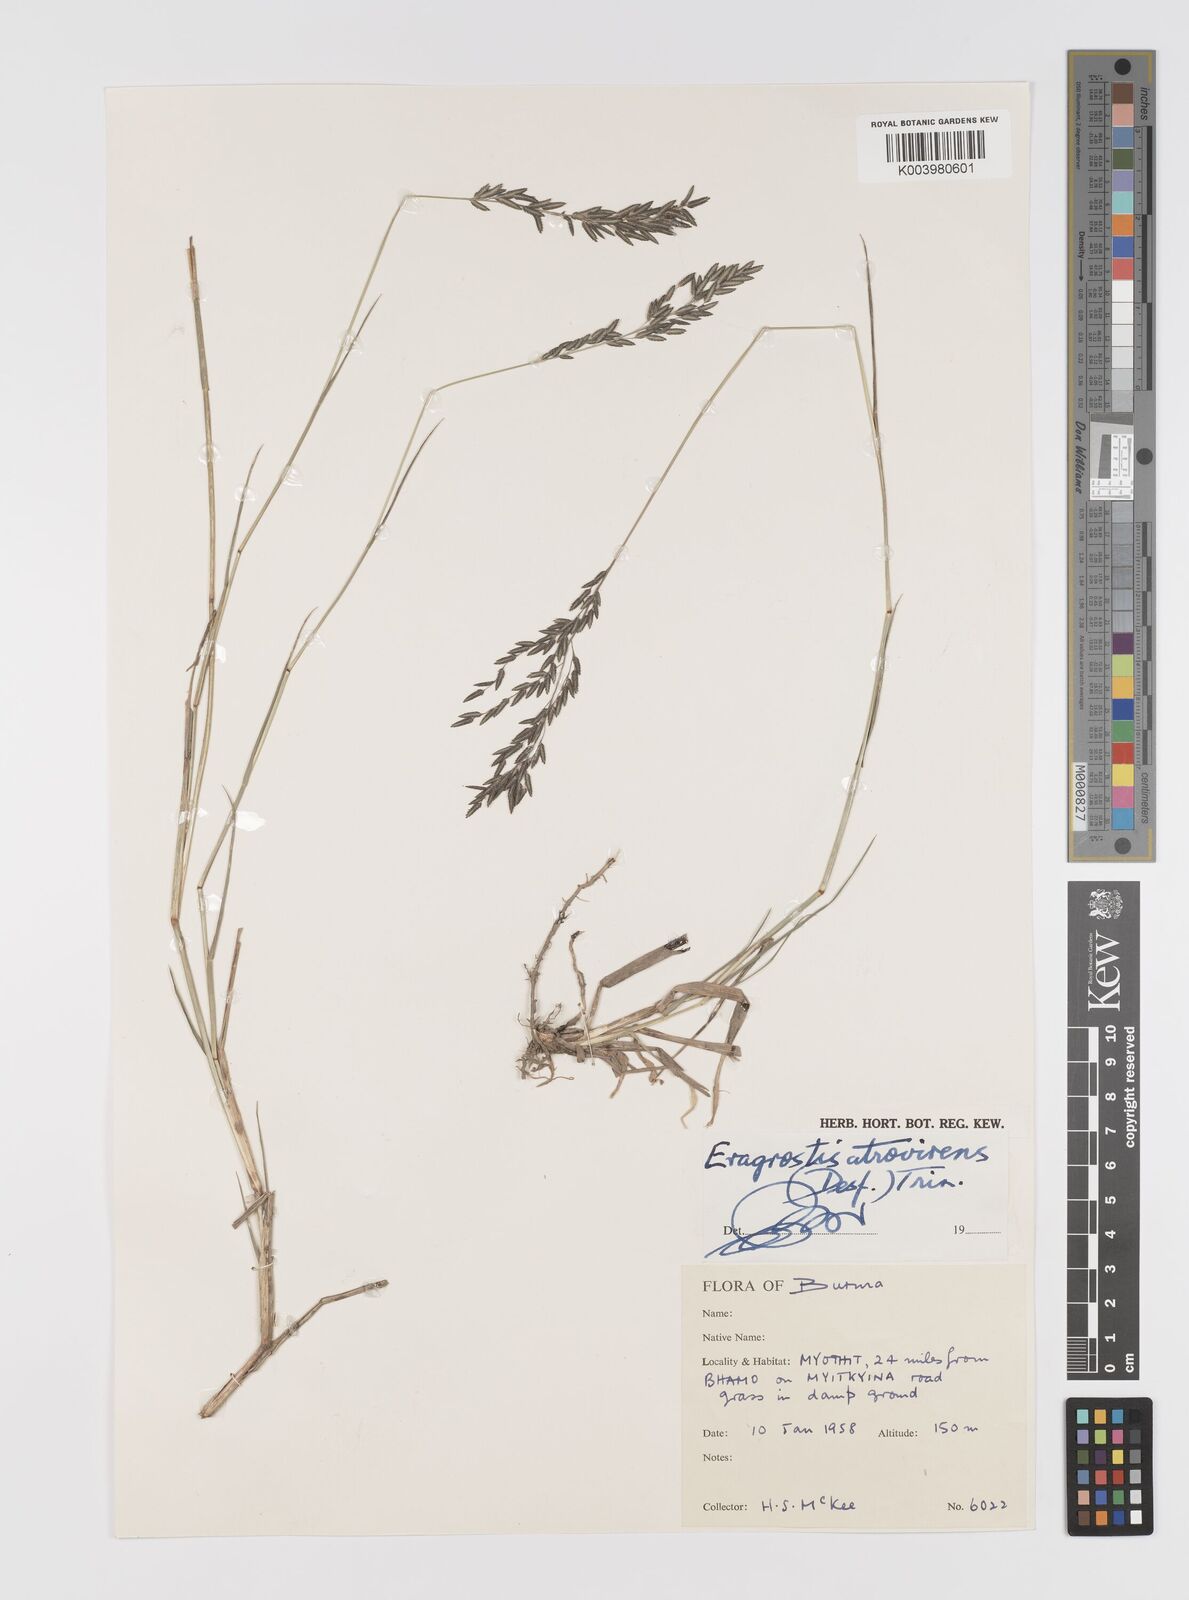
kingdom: Plantae
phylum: Tracheophyta
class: Liliopsida
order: Poales
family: Poaceae
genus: Eragrostis
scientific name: Eragrostis atrovirens
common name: Thalia lovegrass
